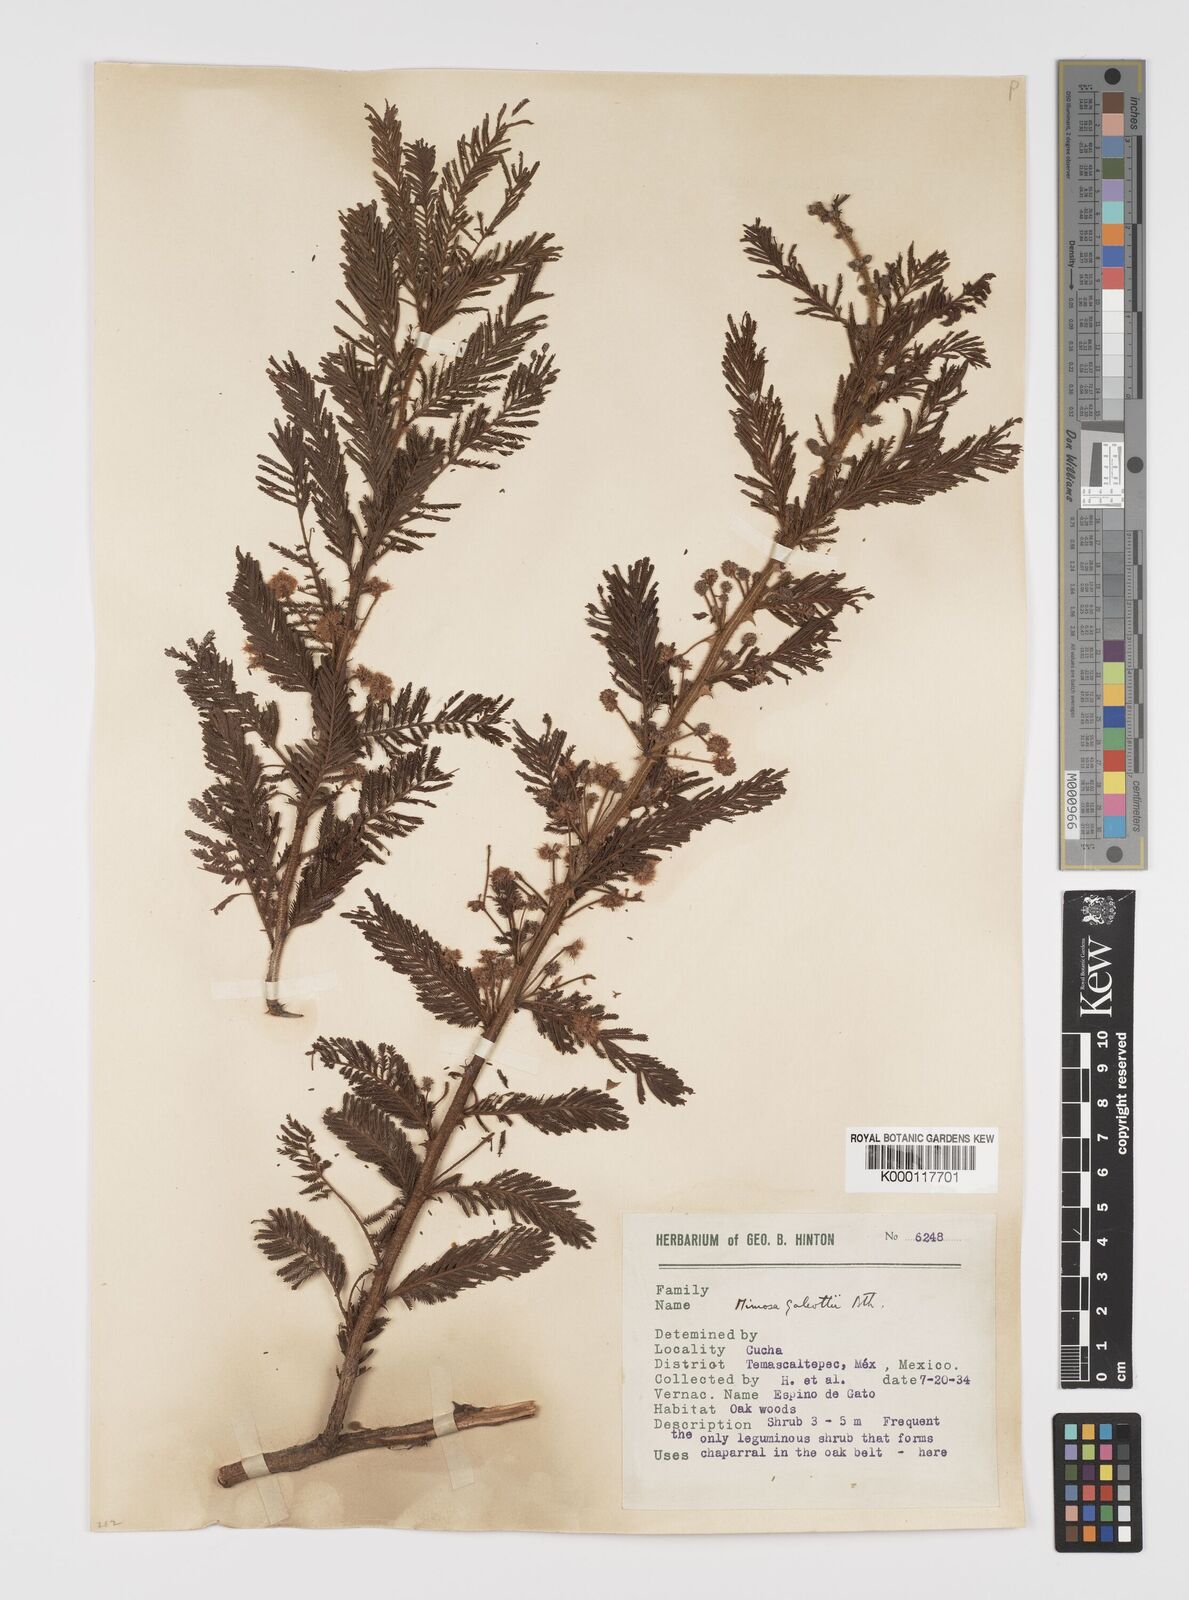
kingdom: Plantae
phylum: Tracheophyta
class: Magnoliopsida
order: Fabales
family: Fabaceae
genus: Mimosa
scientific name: Mimosa galeottii
